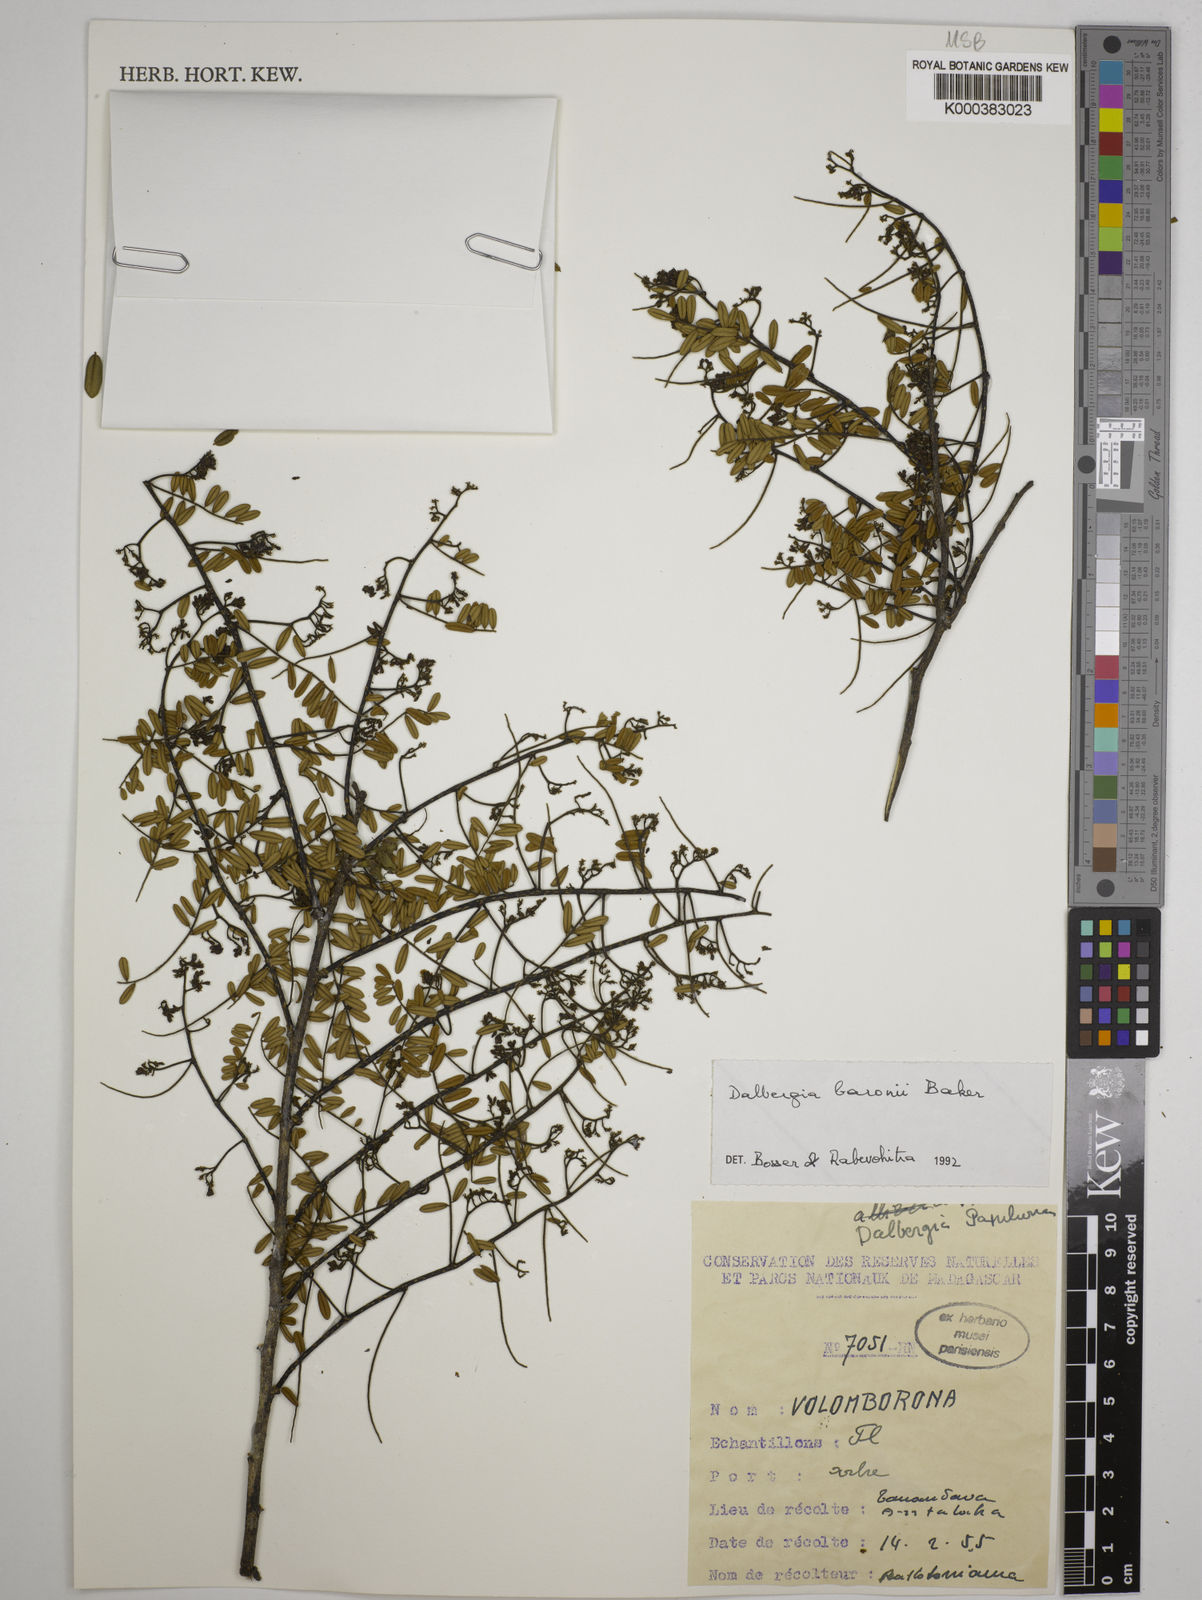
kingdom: Plantae
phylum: Tracheophyta
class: Magnoliopsida
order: Fabales
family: Fabaceae
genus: Dalbergia
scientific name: Dalbergia baronii
